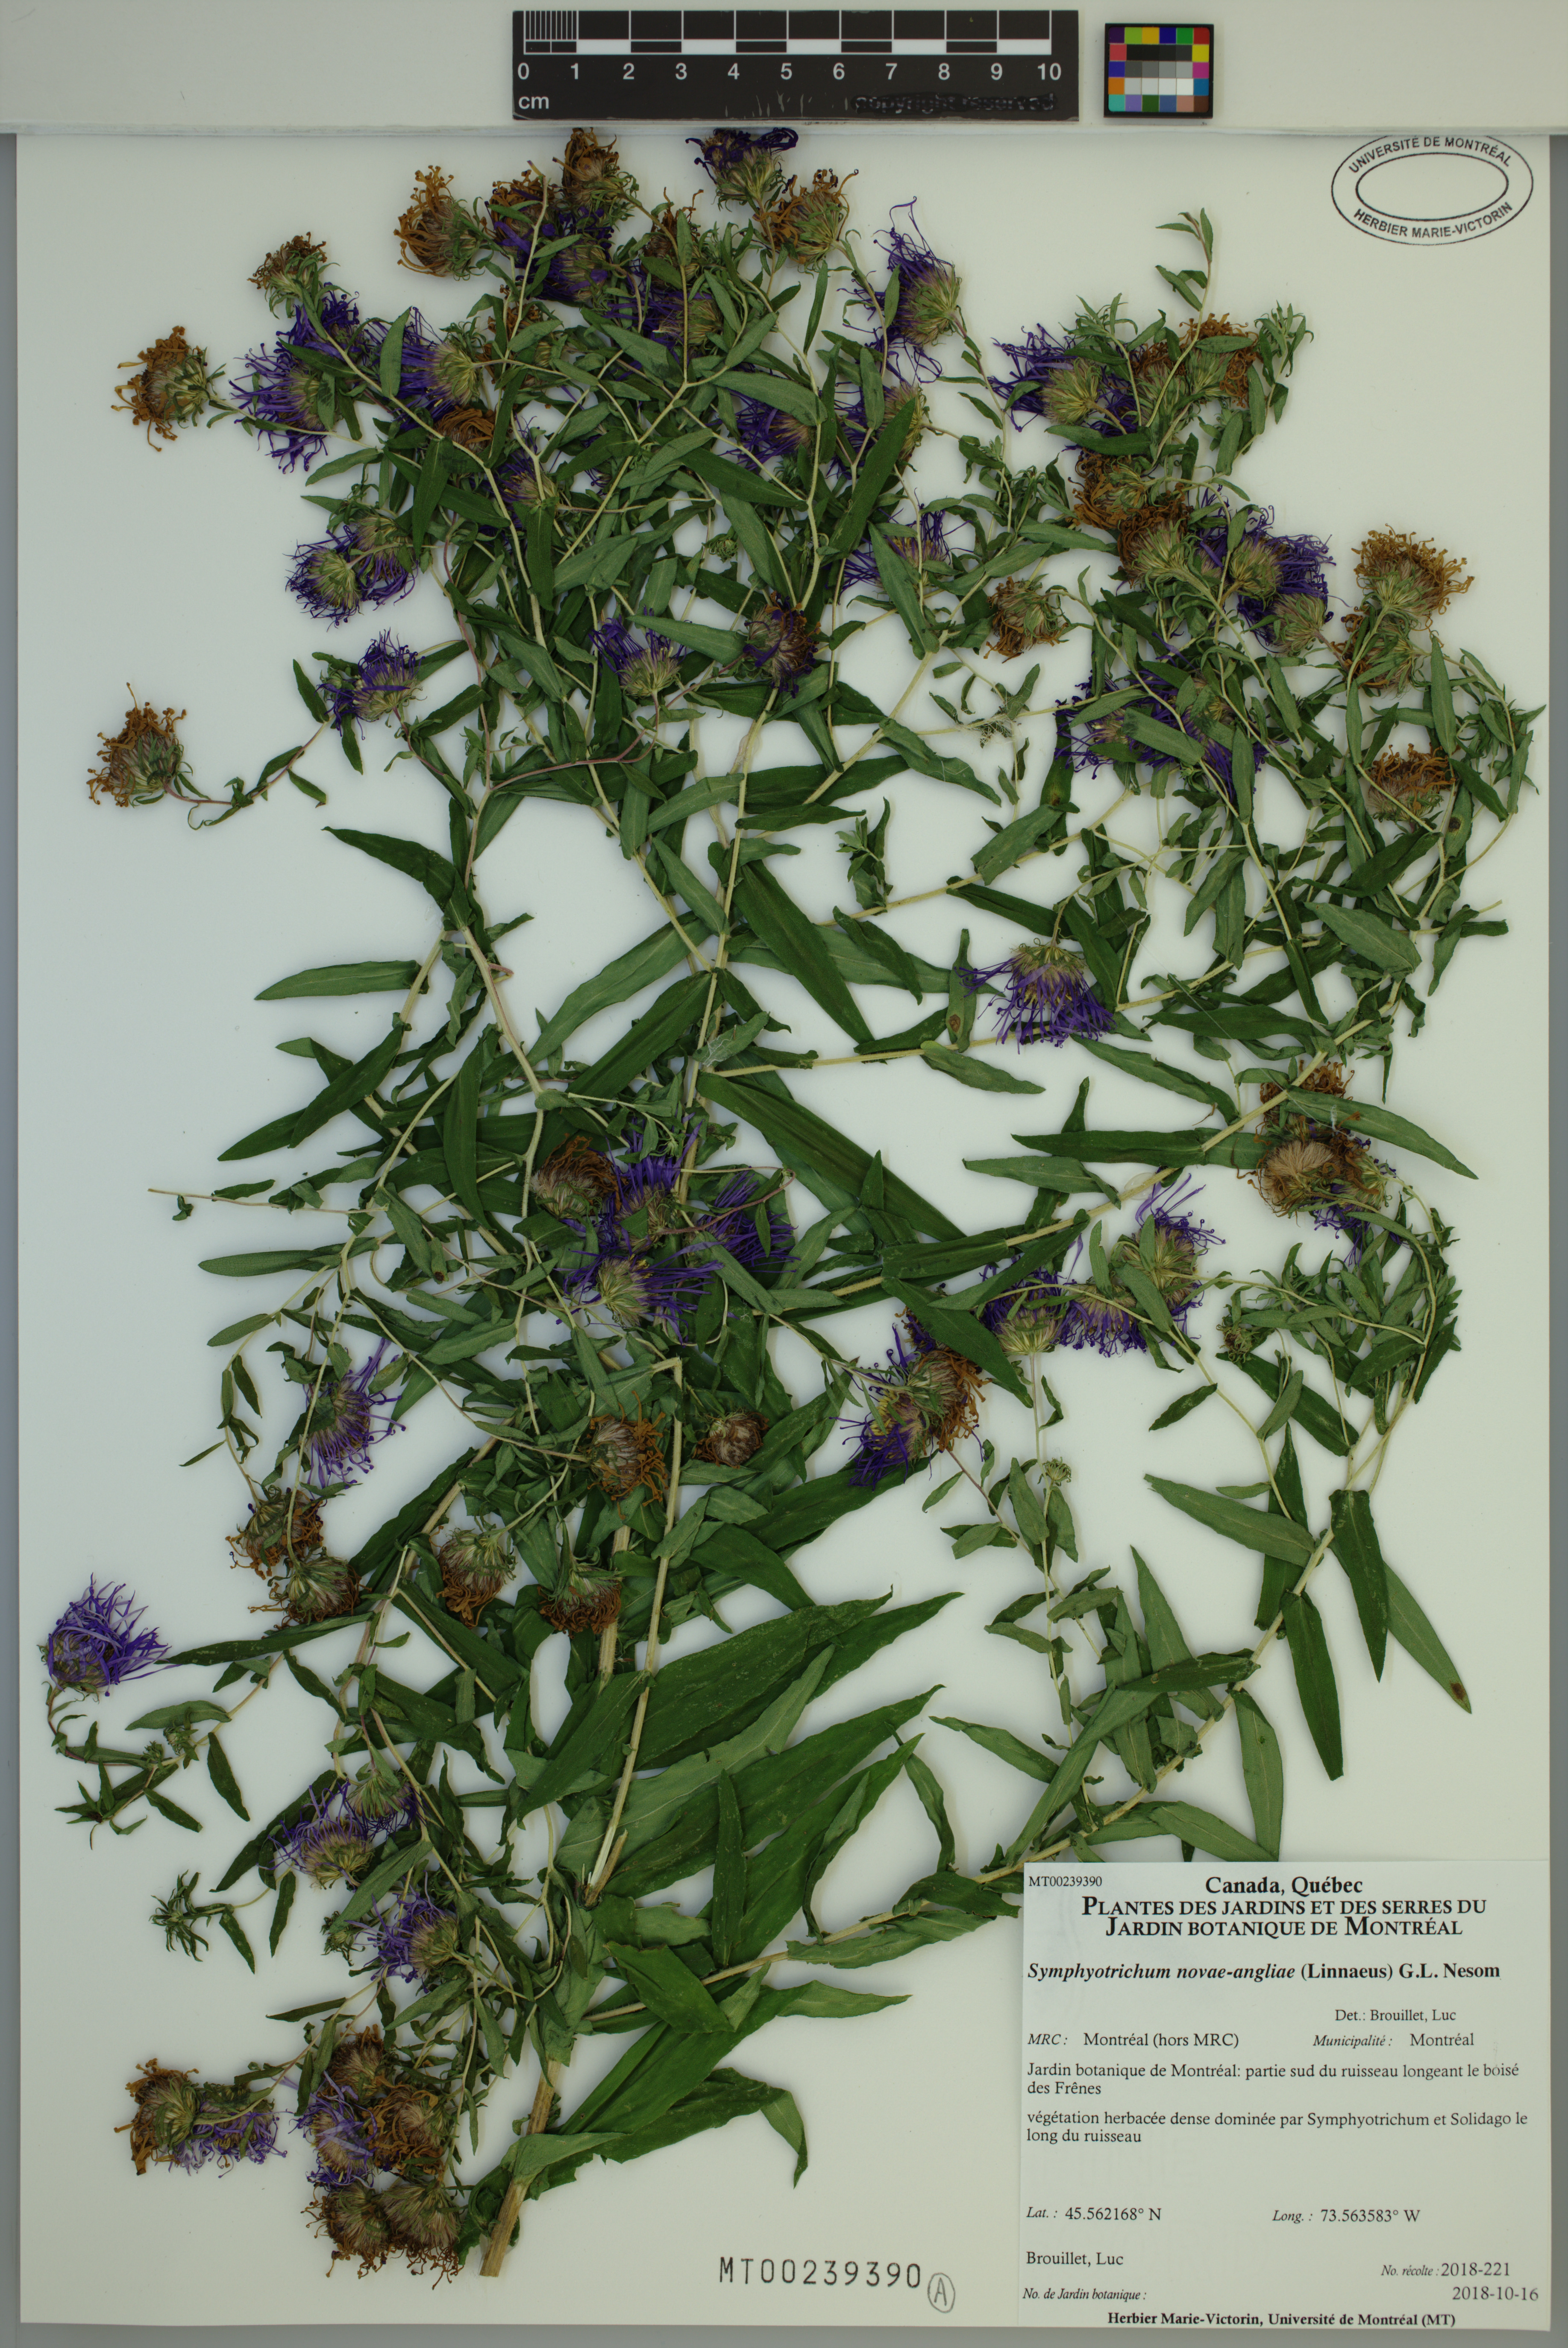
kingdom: Plantae
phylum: Tracheophyta
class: Magnoliopsida
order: Asterales
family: Asteraceae
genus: Symphyotrichum
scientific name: Symphyotrichum novae-angliae
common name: Michaelmas daisy
